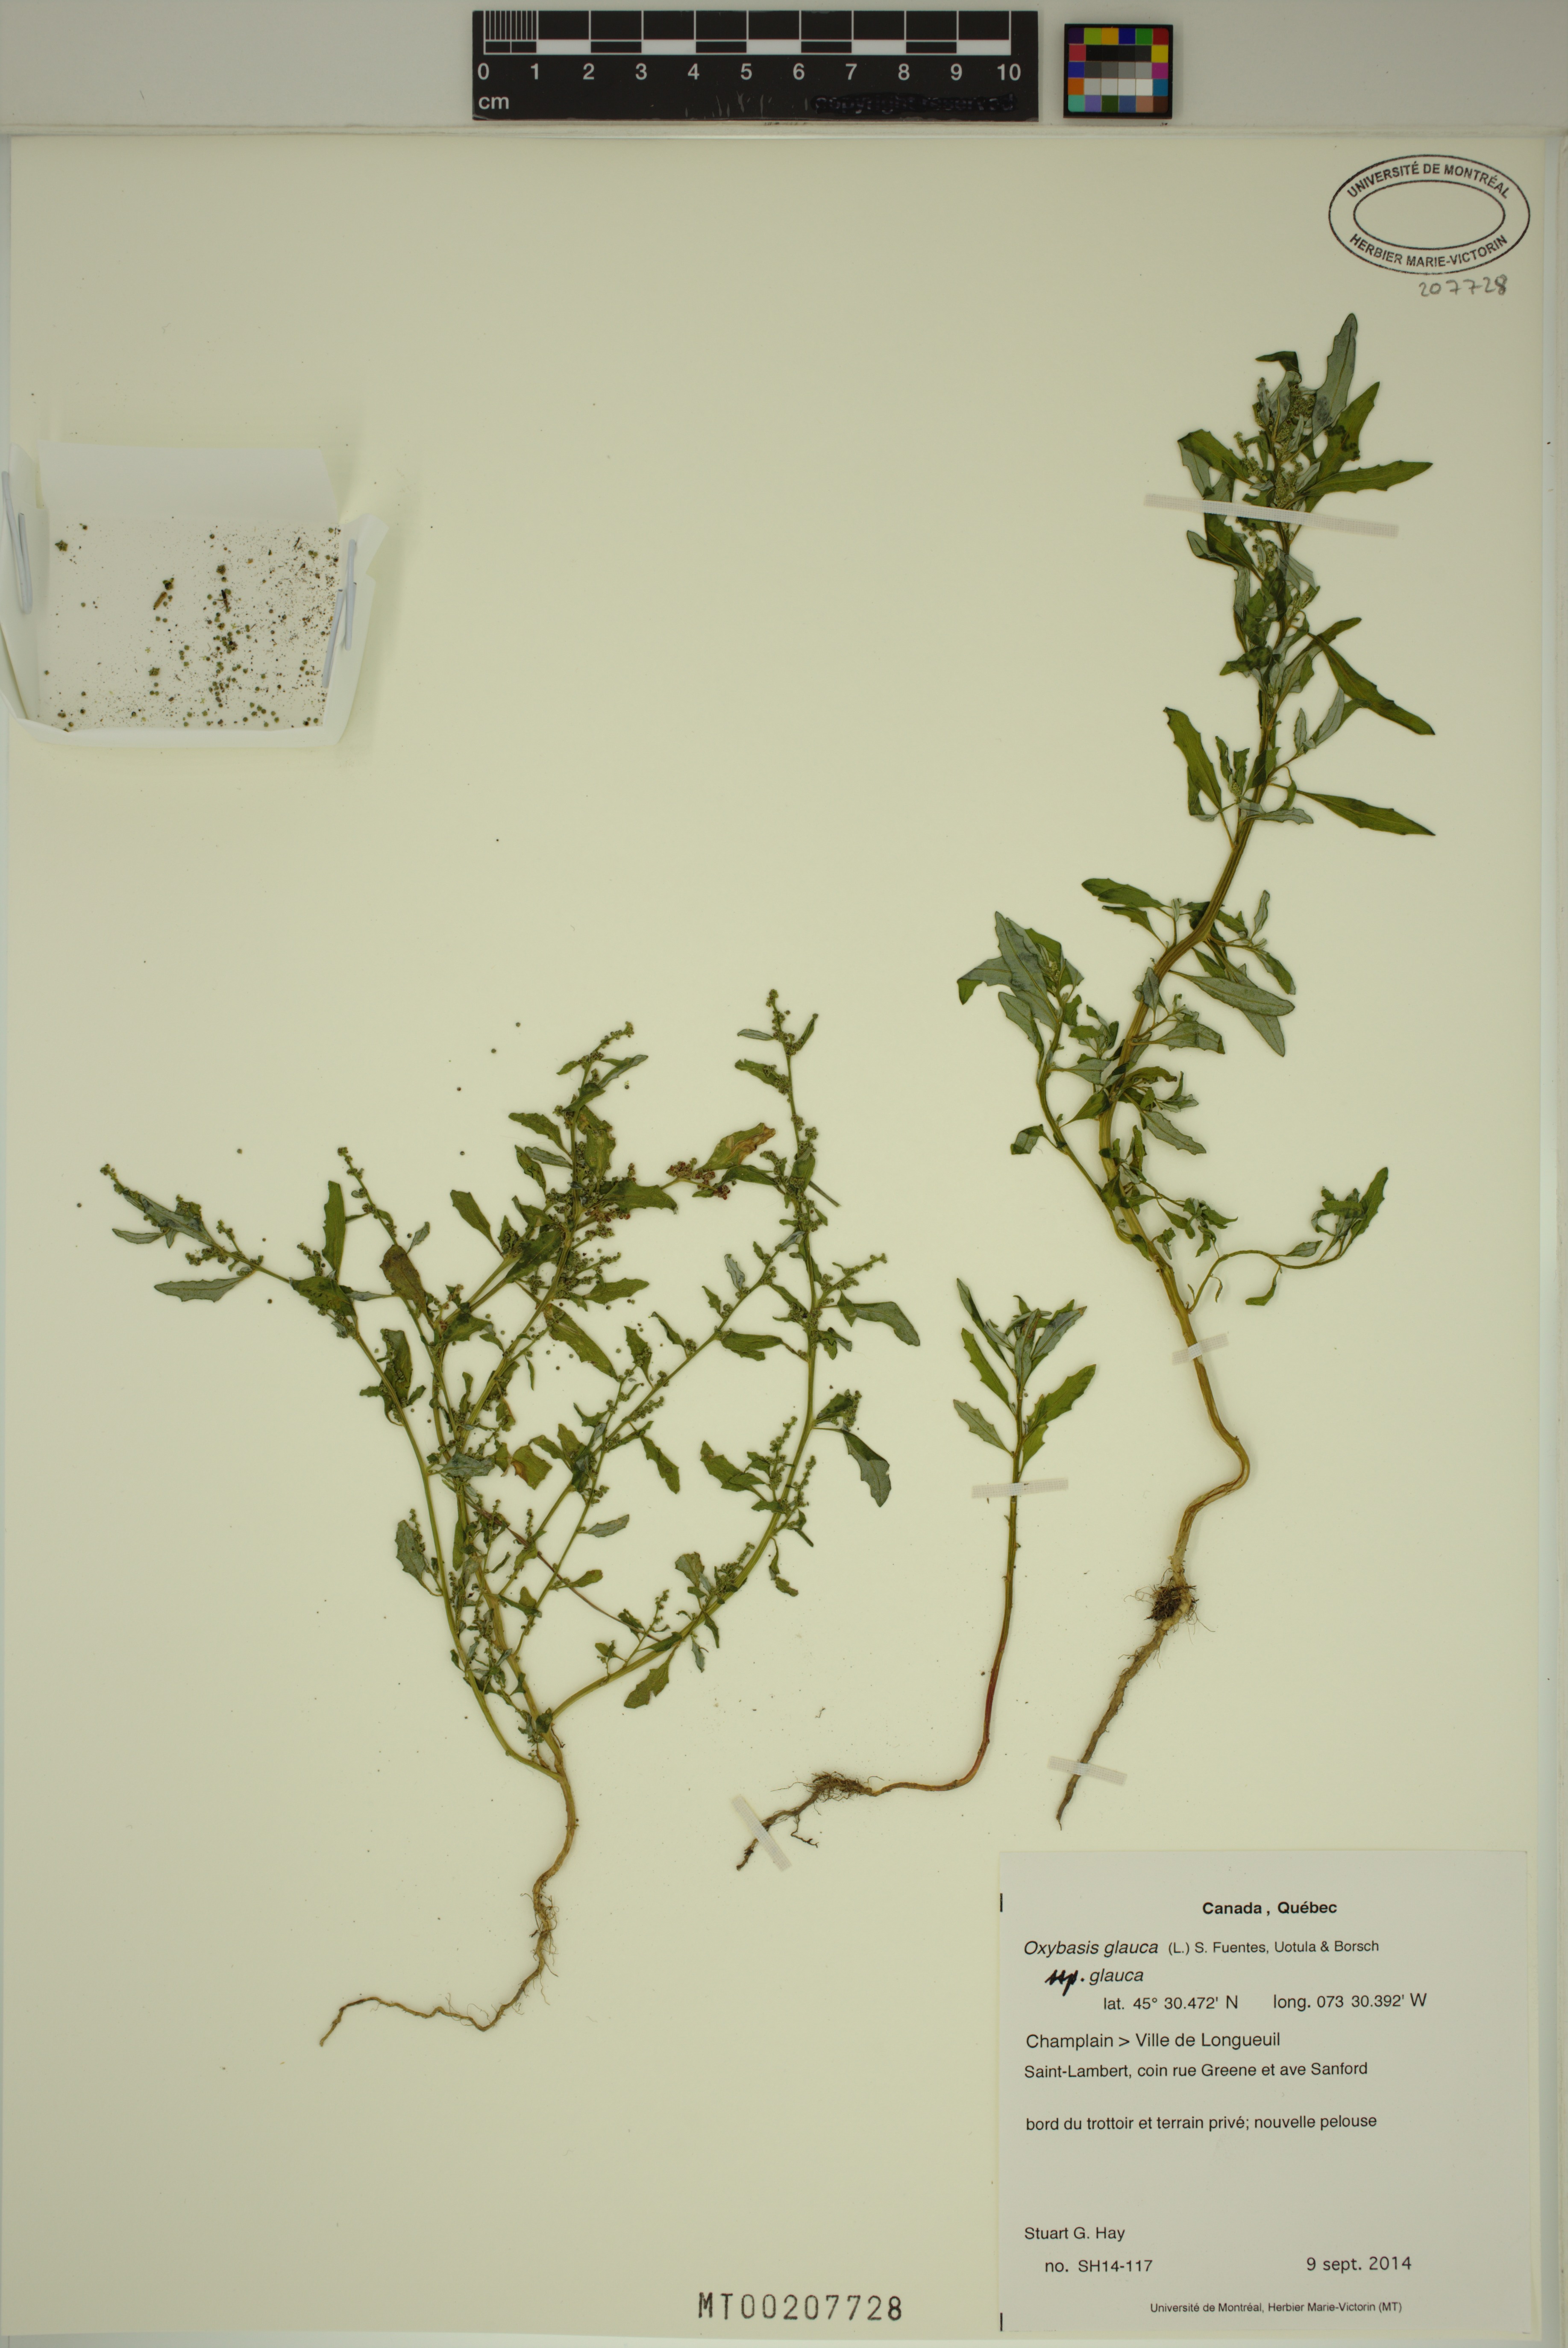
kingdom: Plantae
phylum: Tracheophyta
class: Magnoliopsida
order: Caryophyllales
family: Amaranthaceae
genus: Oxybasis
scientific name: Oxybasis glauca
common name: Glaucous goosefoot
